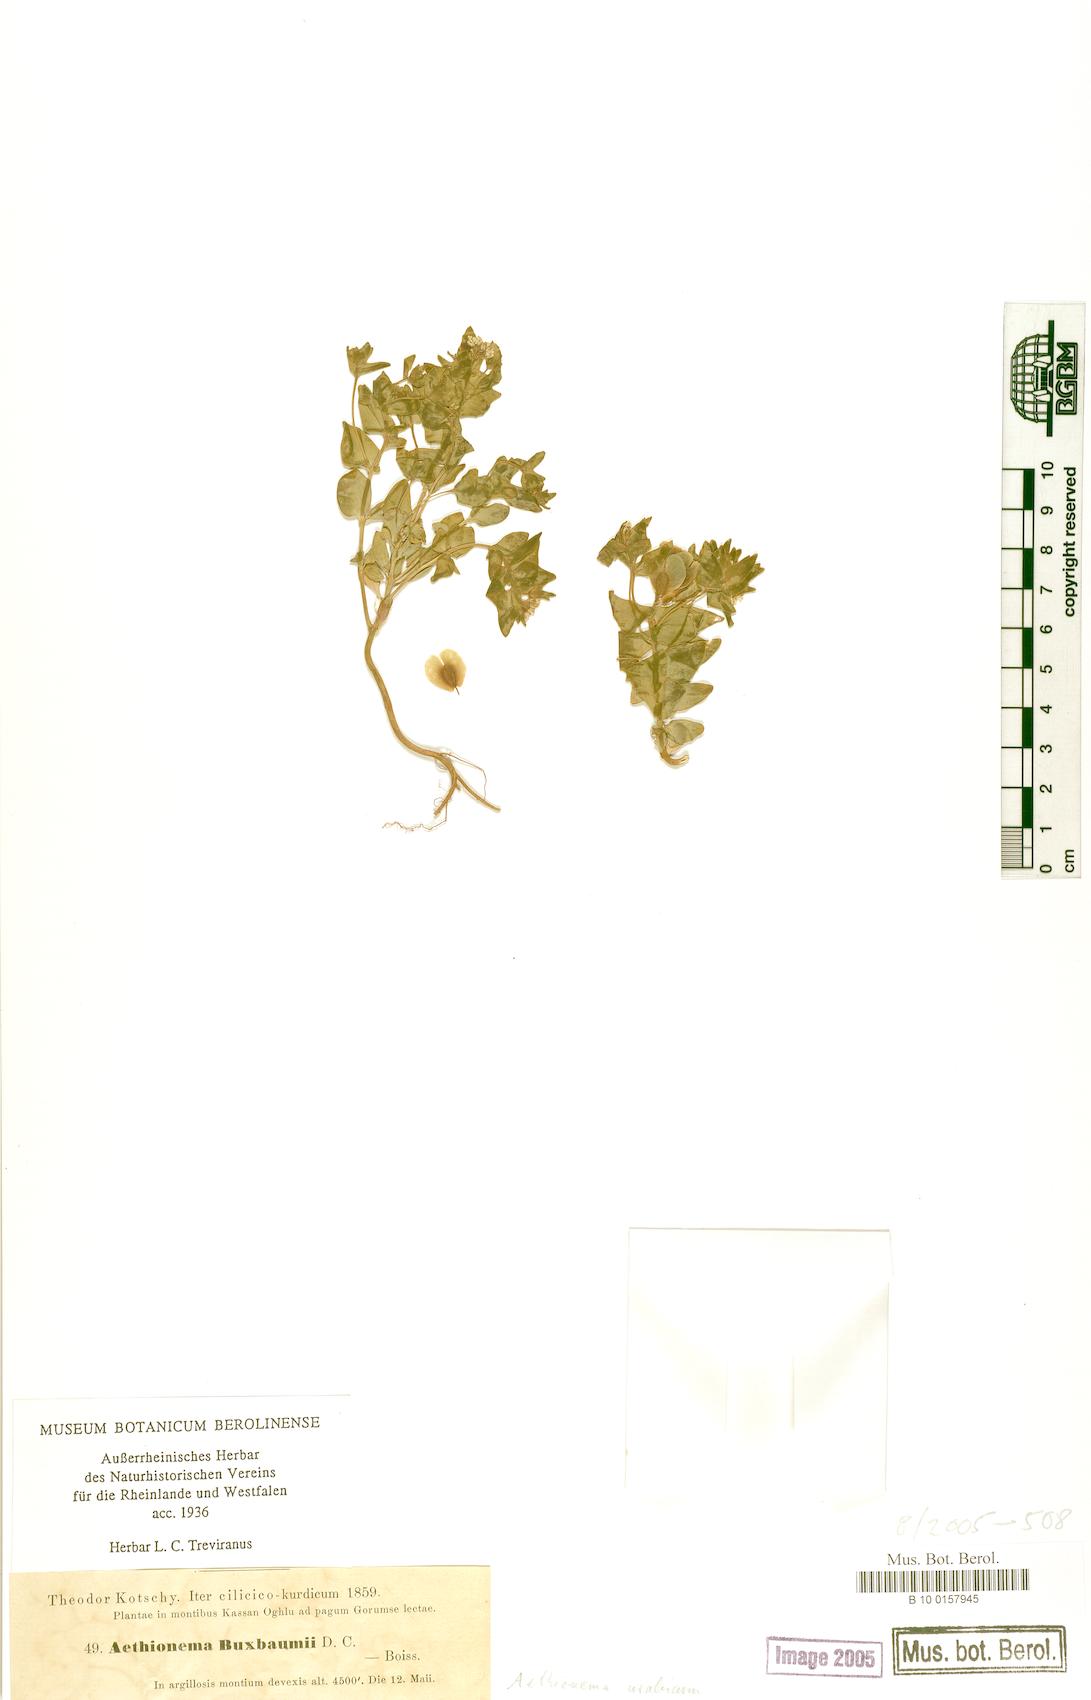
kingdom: Plantae
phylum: Tracheophyta
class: Magnoliopsida
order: Brassicales
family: Brassicaceae
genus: Aethionema
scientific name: Aethionema arabicum
